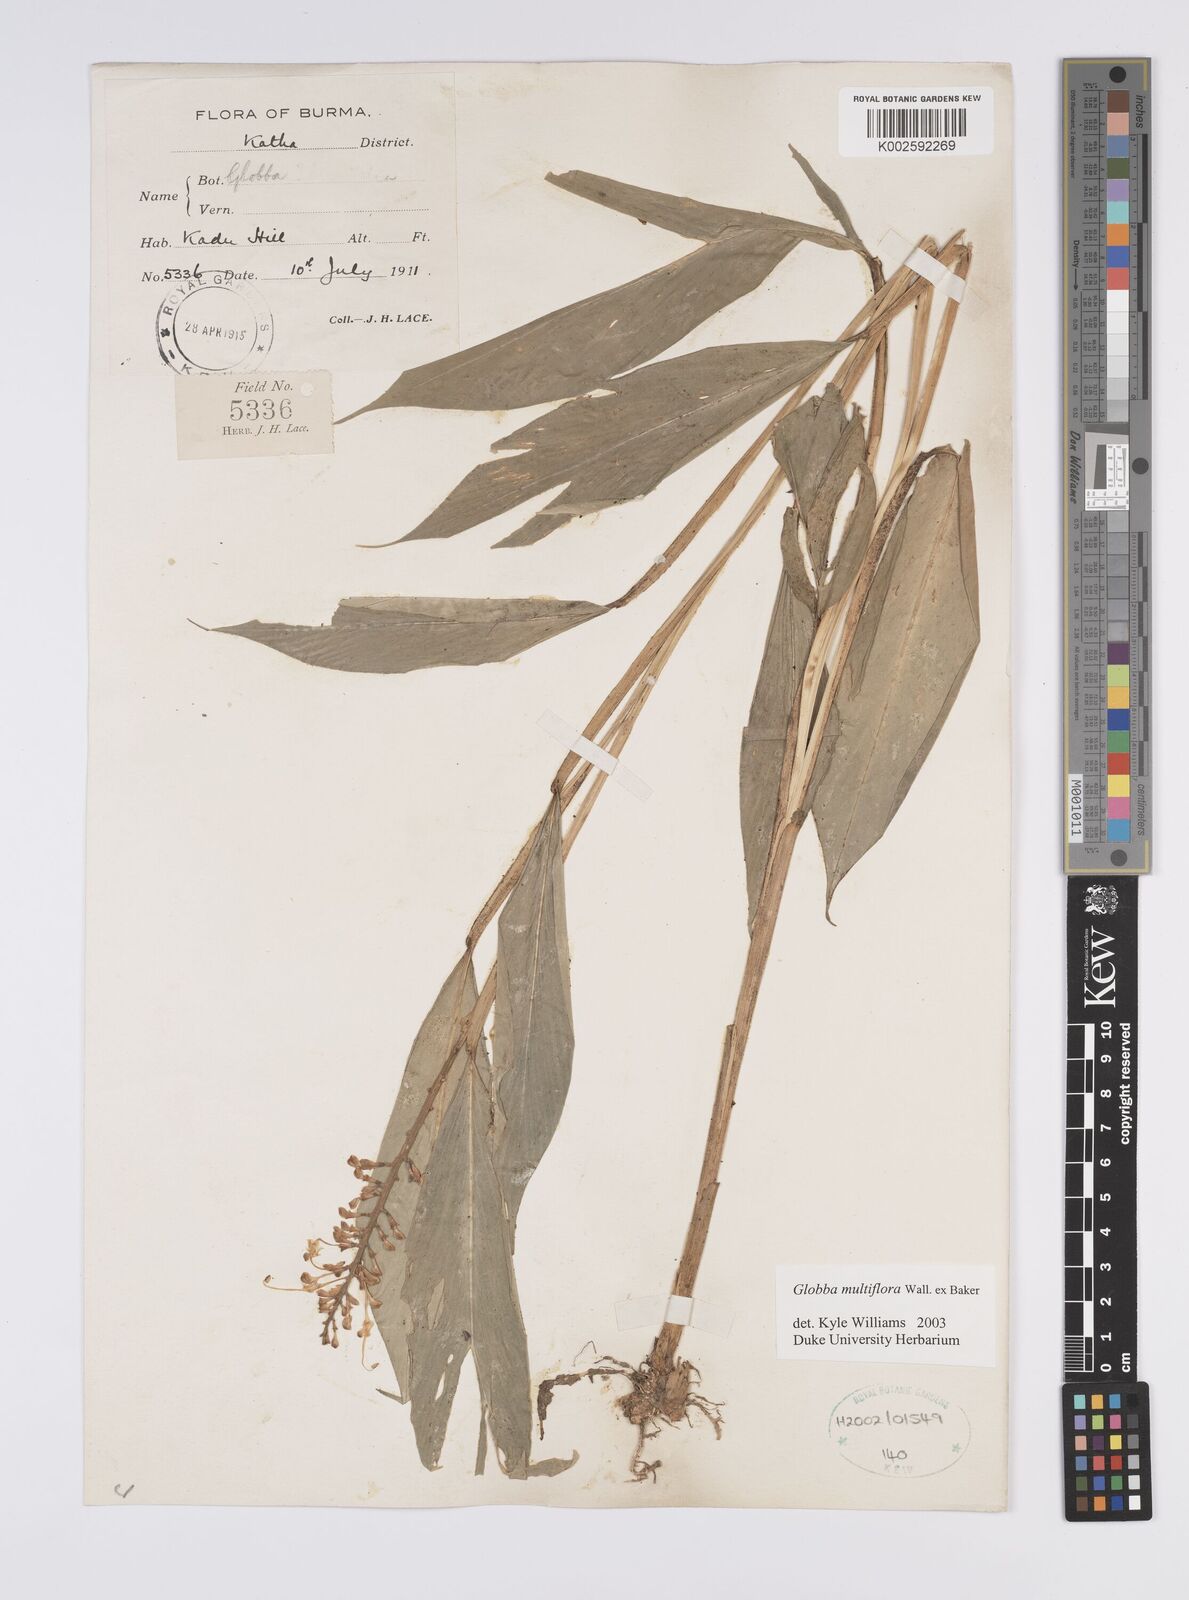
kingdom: Plantae
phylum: Tracheophyta
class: Liliopsida
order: Zingiberales
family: Zingiberaceae
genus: Globba
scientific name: Globba multiflora
